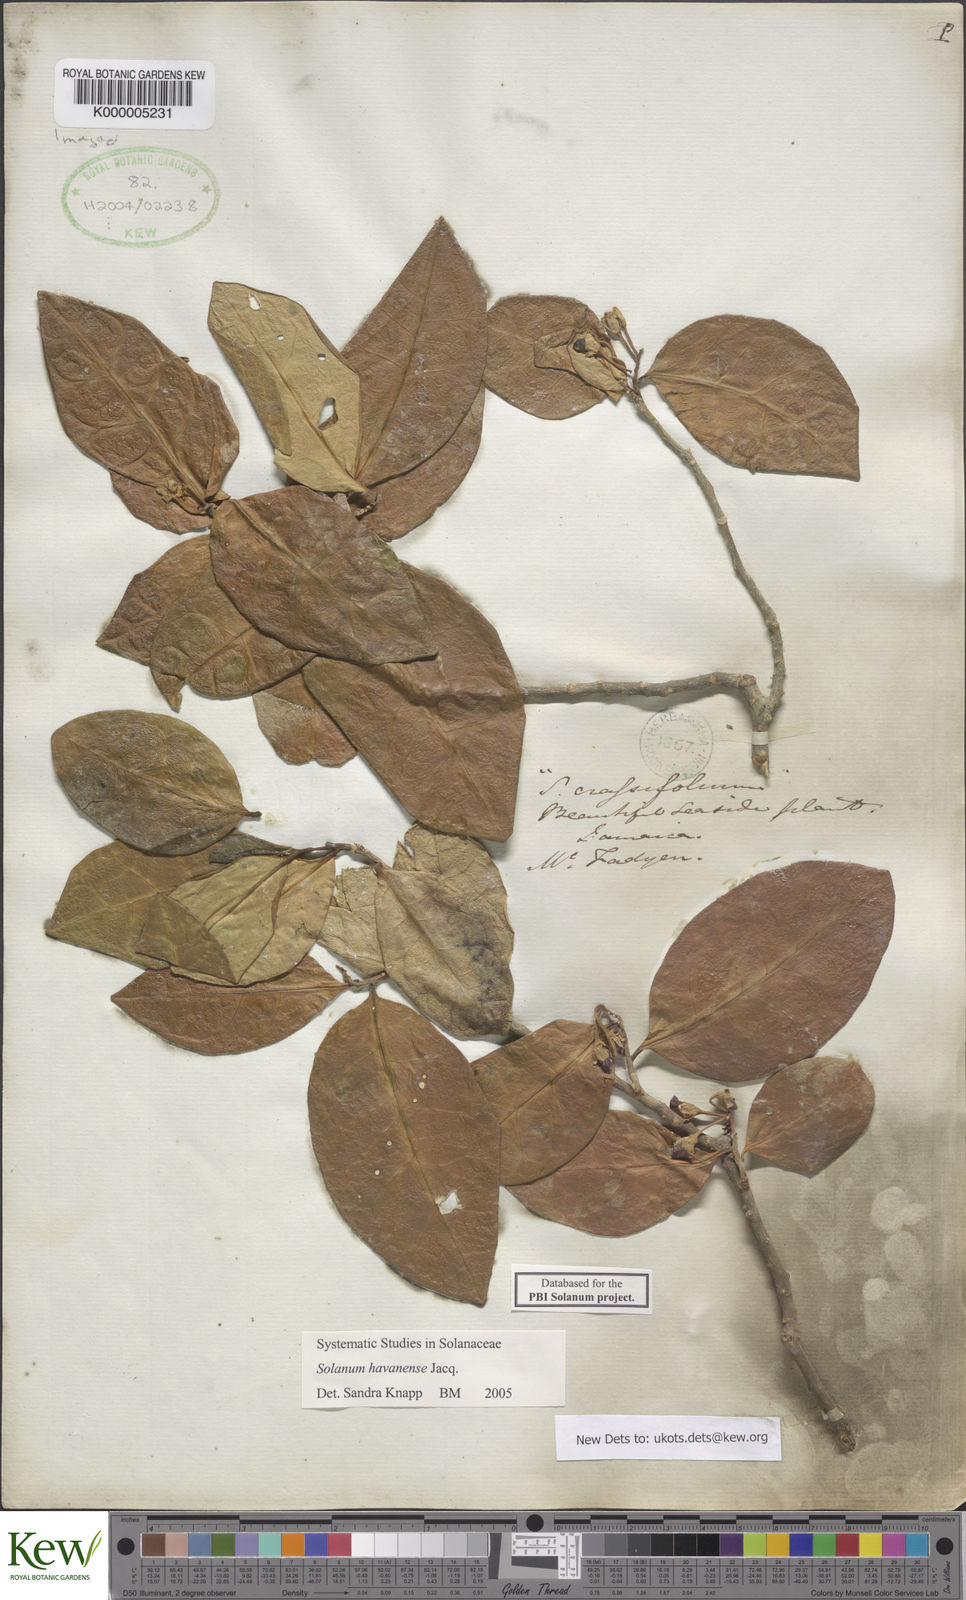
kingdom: Plantae
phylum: Tracheophyta
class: Magnoliopsida
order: Solanales
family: Solanaceae
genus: Solanum
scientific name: Solanum havanense
